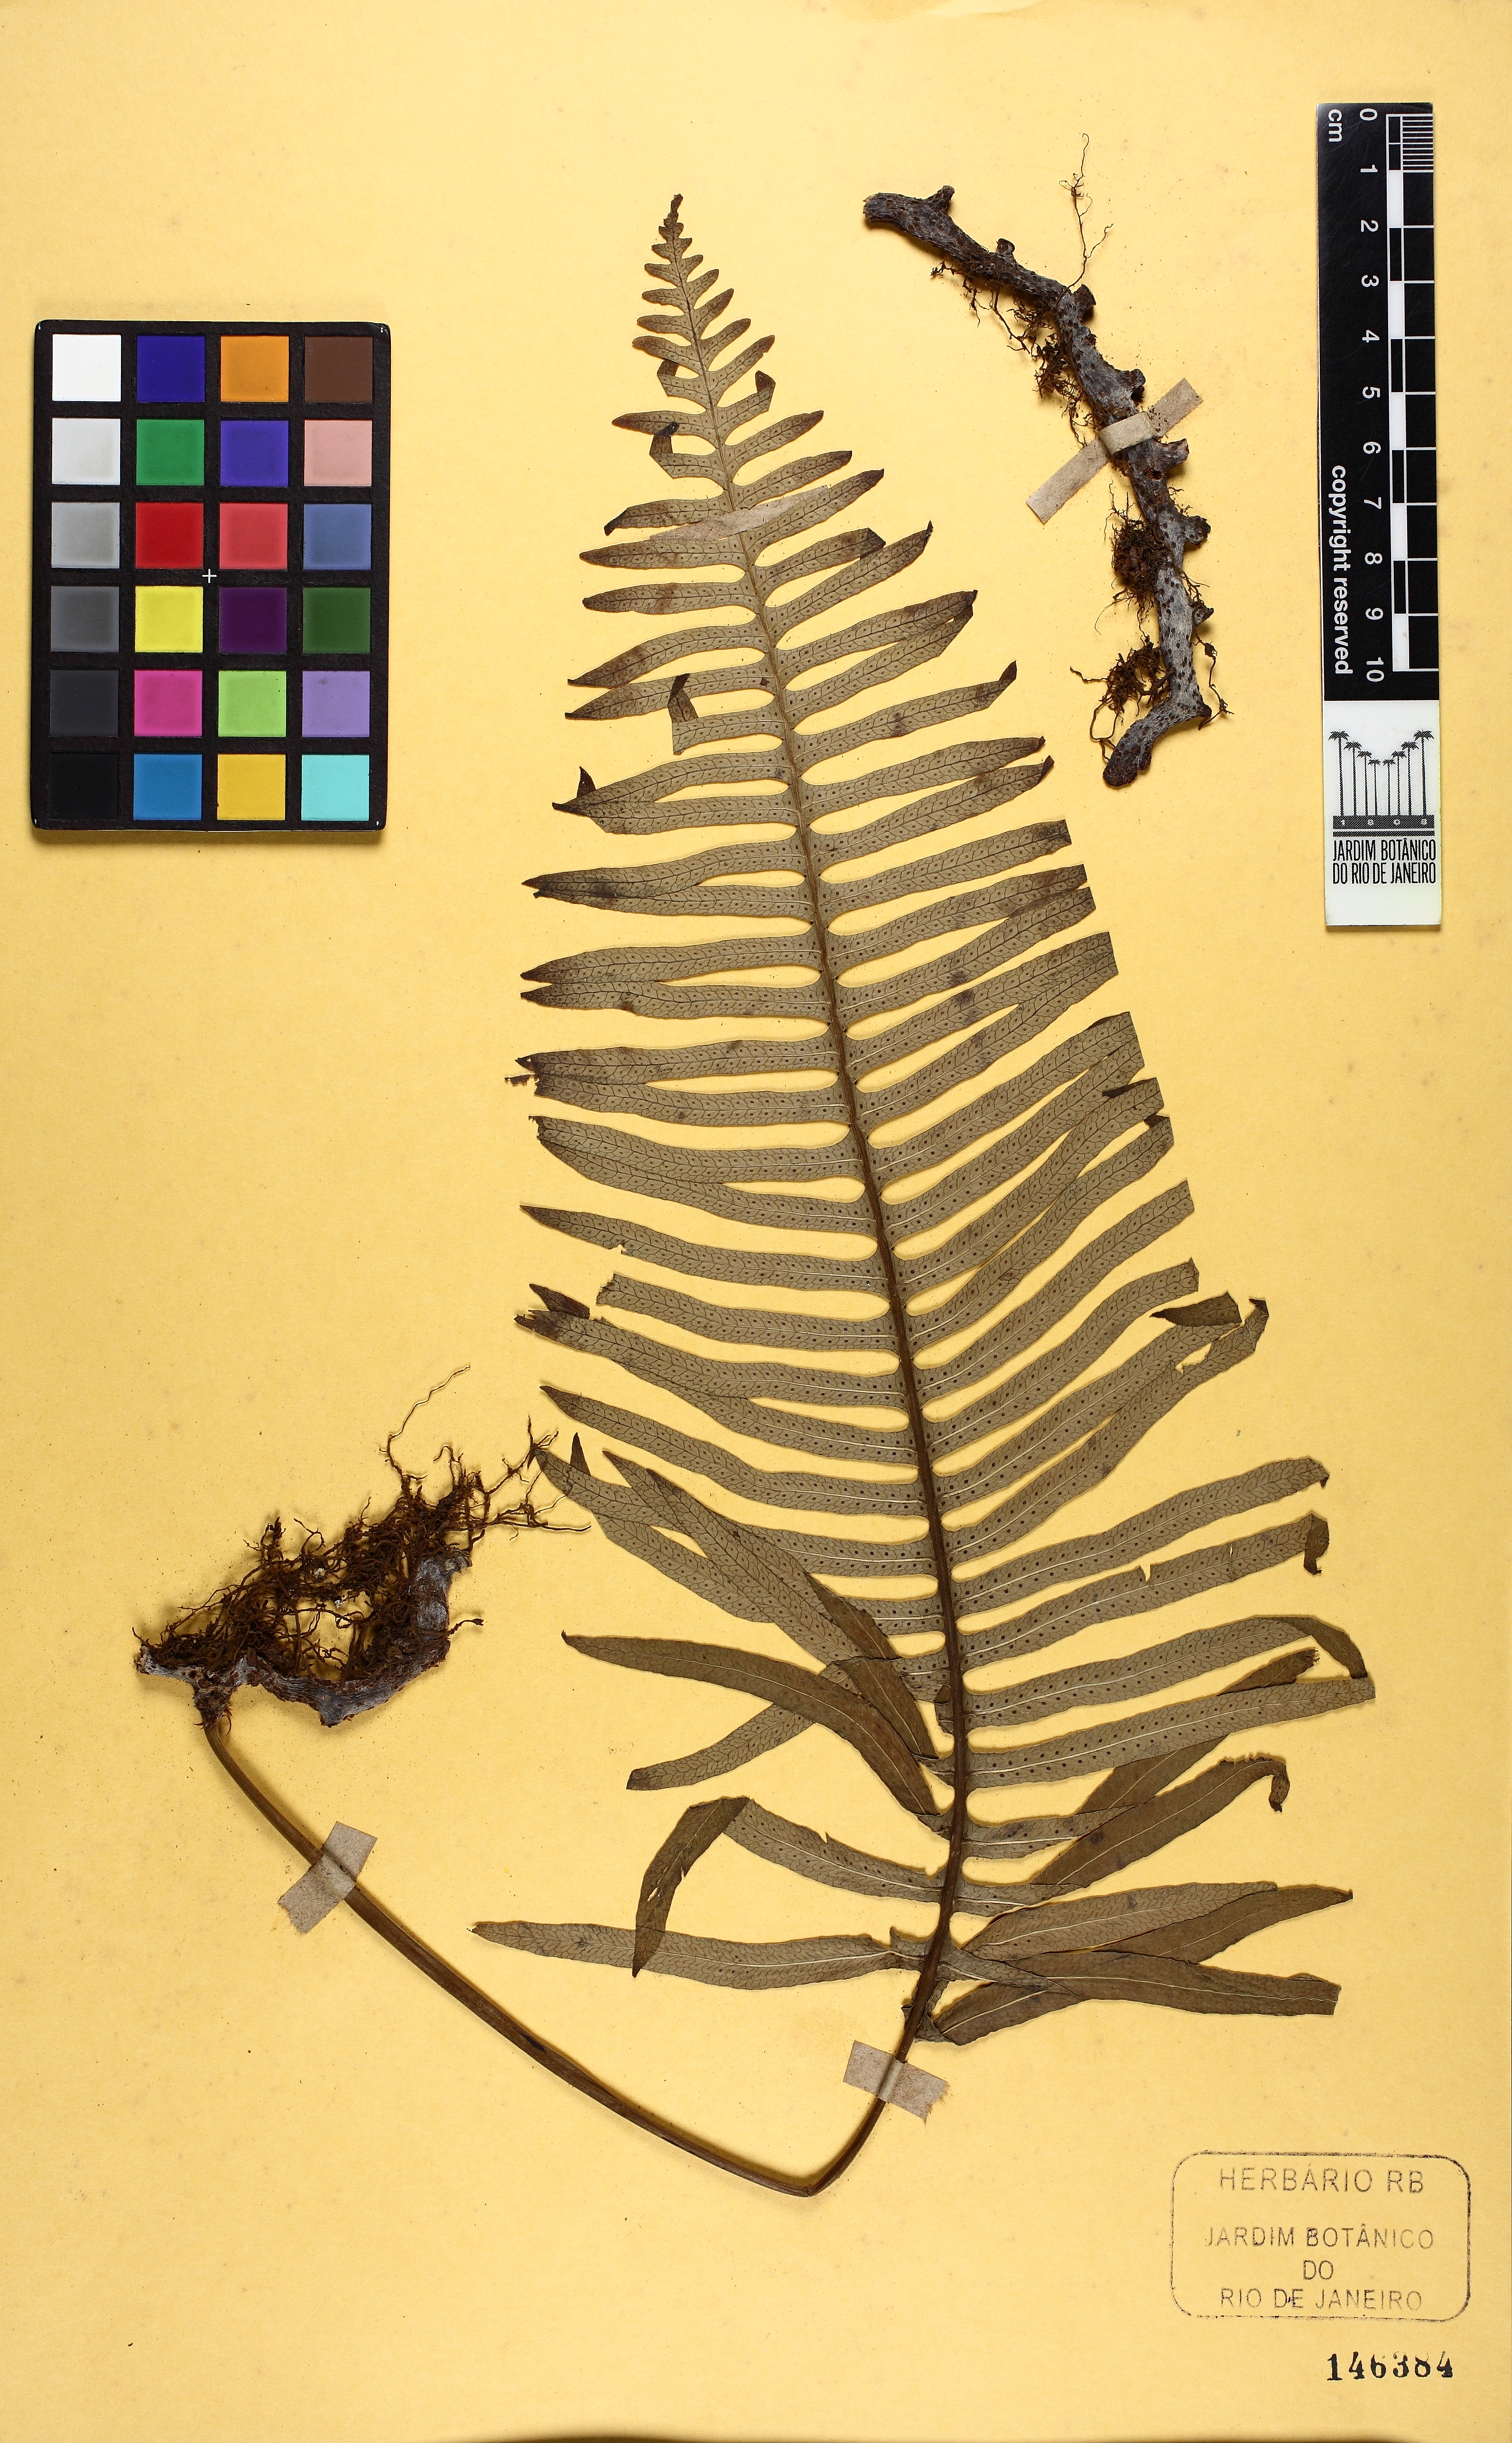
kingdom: Plantae
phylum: Tracheophyta
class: Polypodiopsida
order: Polypodiales
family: Polypodiaceae
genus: Serpocaulon
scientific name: Serpocaulon catharinae
